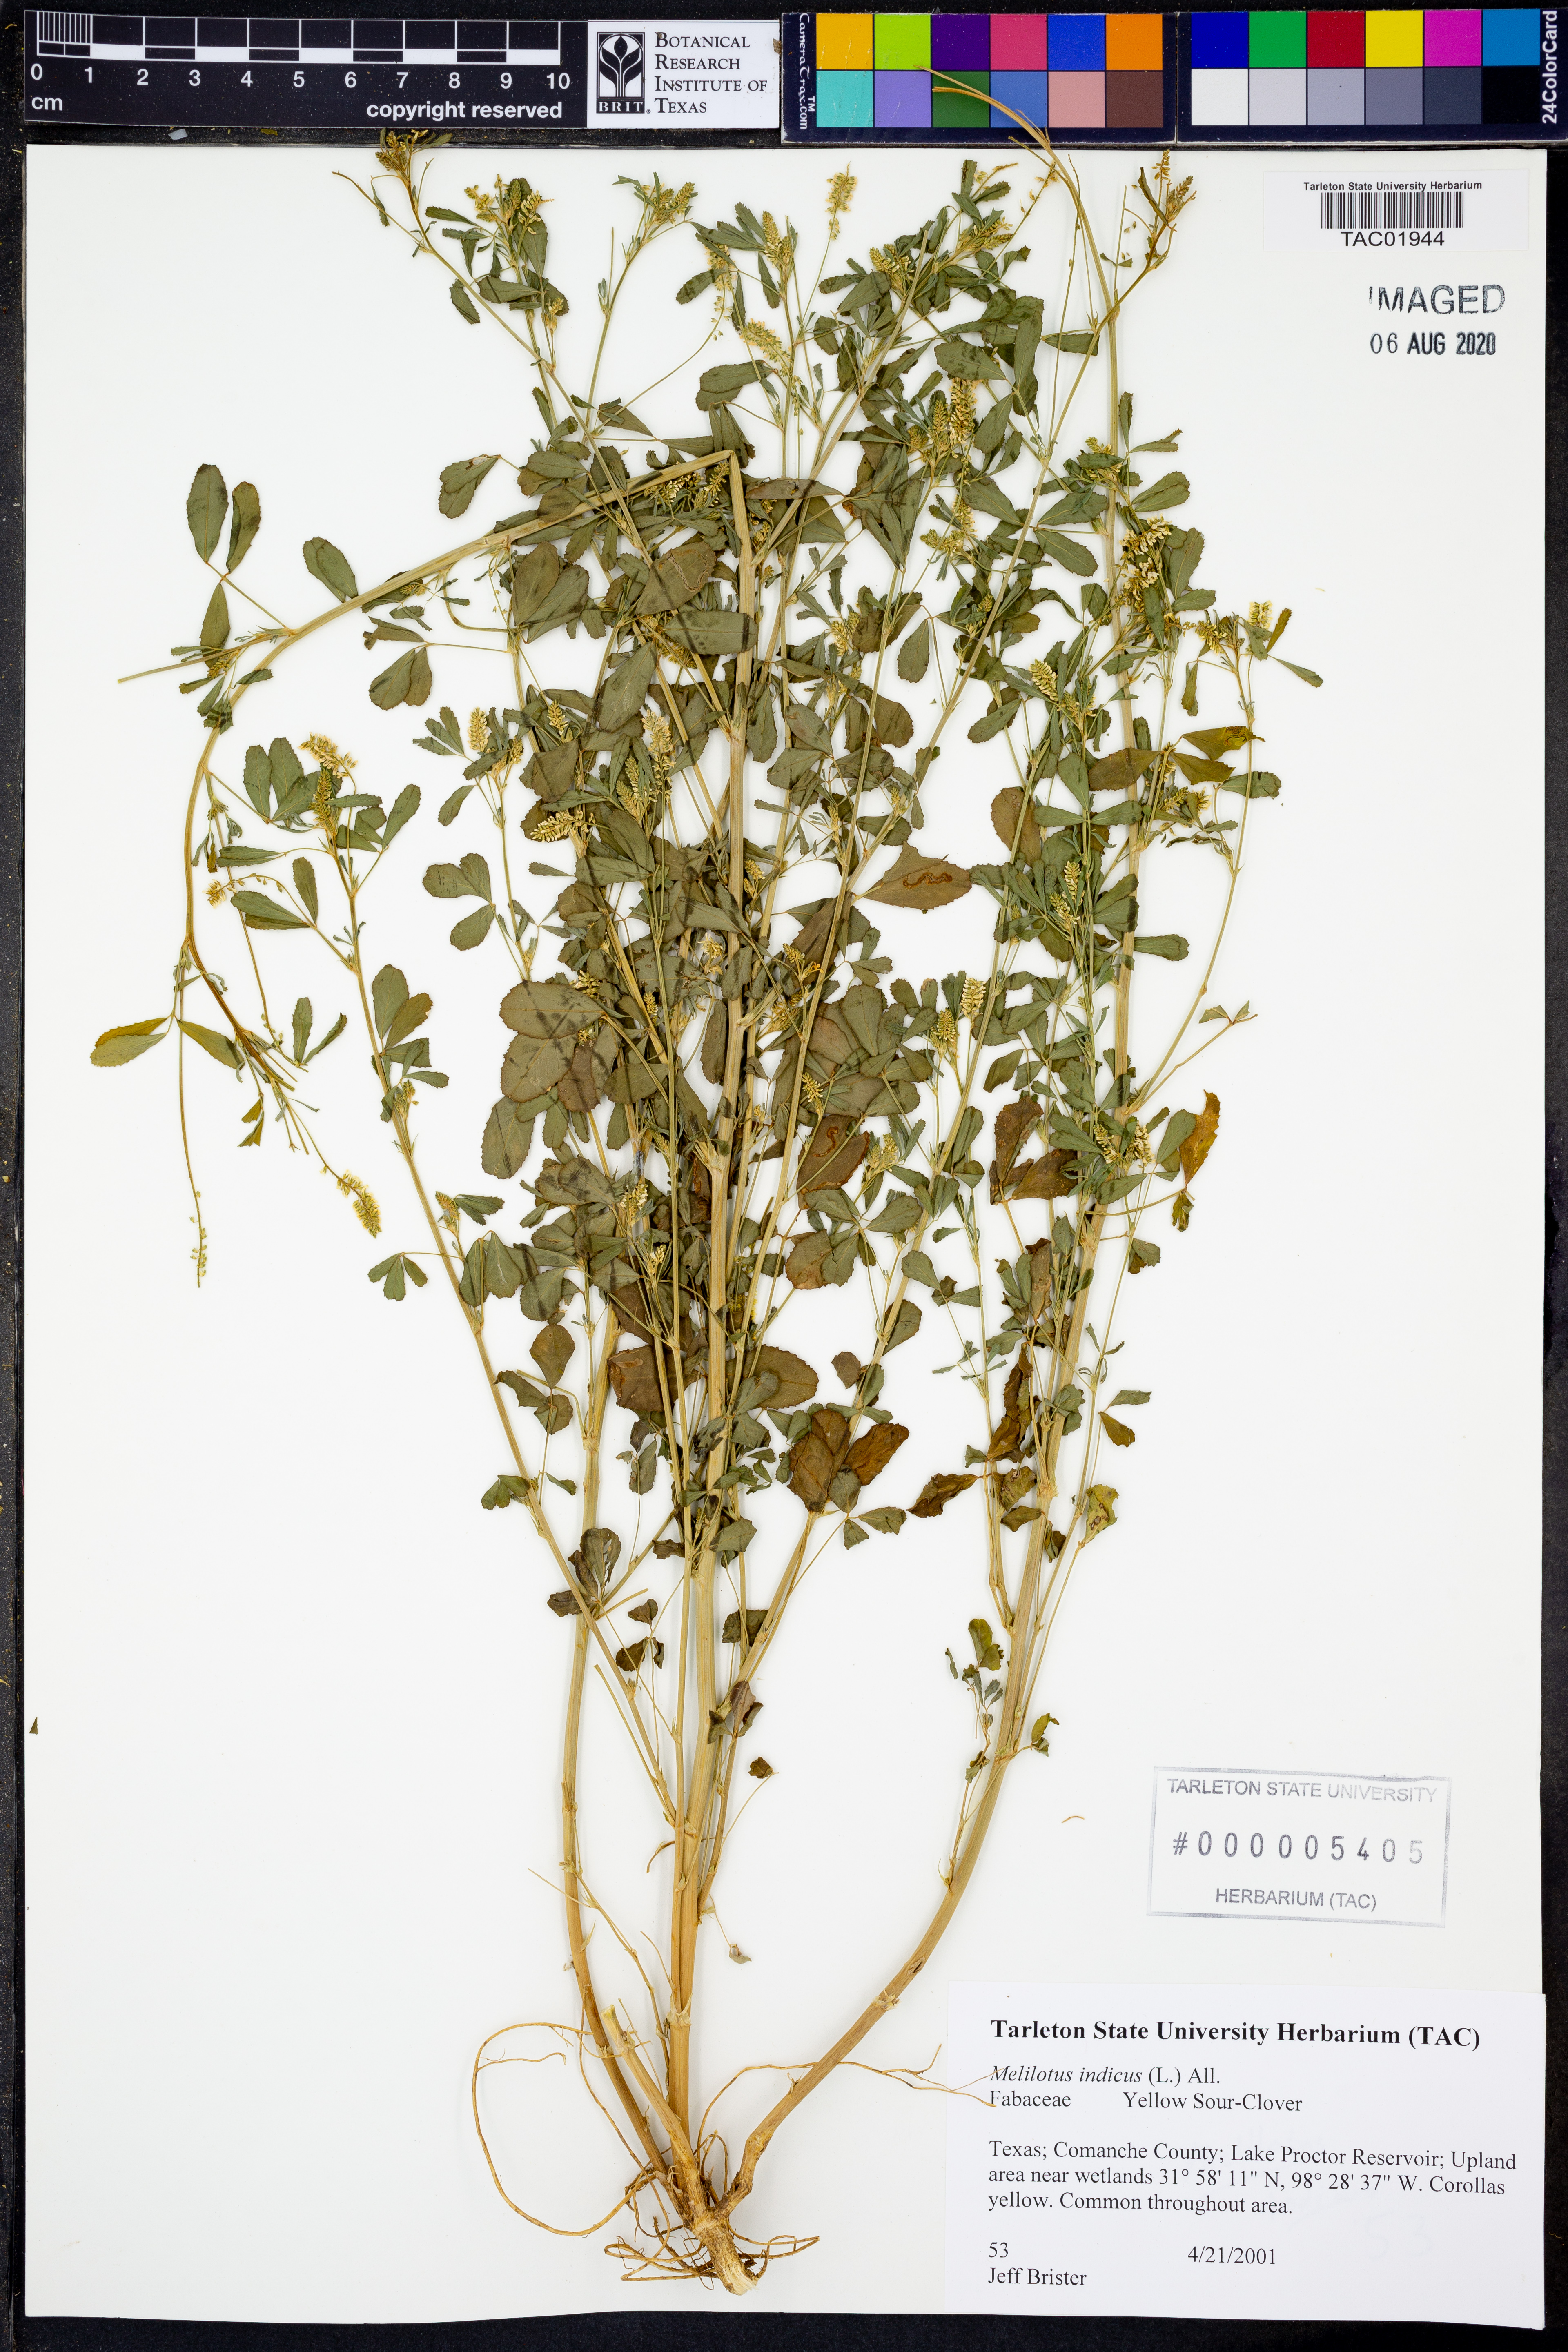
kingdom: Plantae
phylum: Tracheophyta
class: Magnoliopsida
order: Fabales
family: Fabaceae
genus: Melilotus
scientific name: Melilotus indicus
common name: Small melilot
